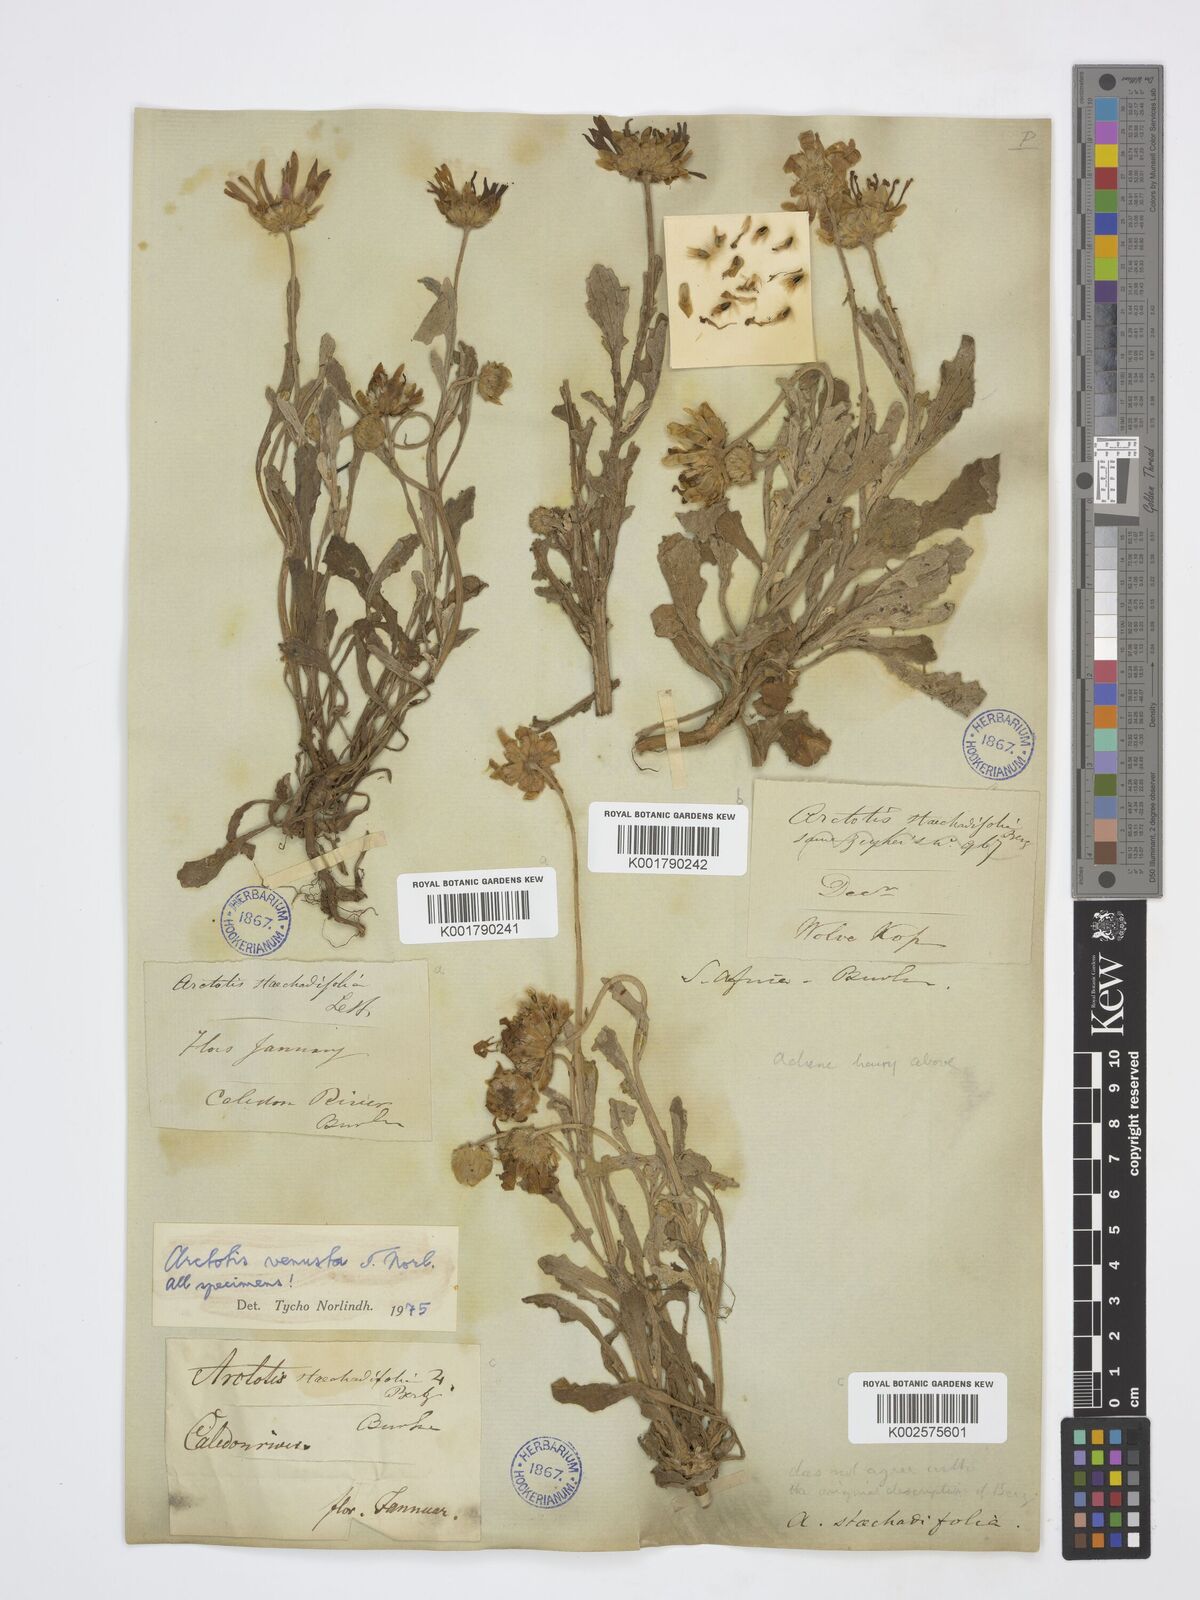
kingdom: Plantae
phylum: Tracheophyta
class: Magnoliopsida
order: Asterales
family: Asteraceae
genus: Arctotis
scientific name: Arctotis venusta
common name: African daisy
